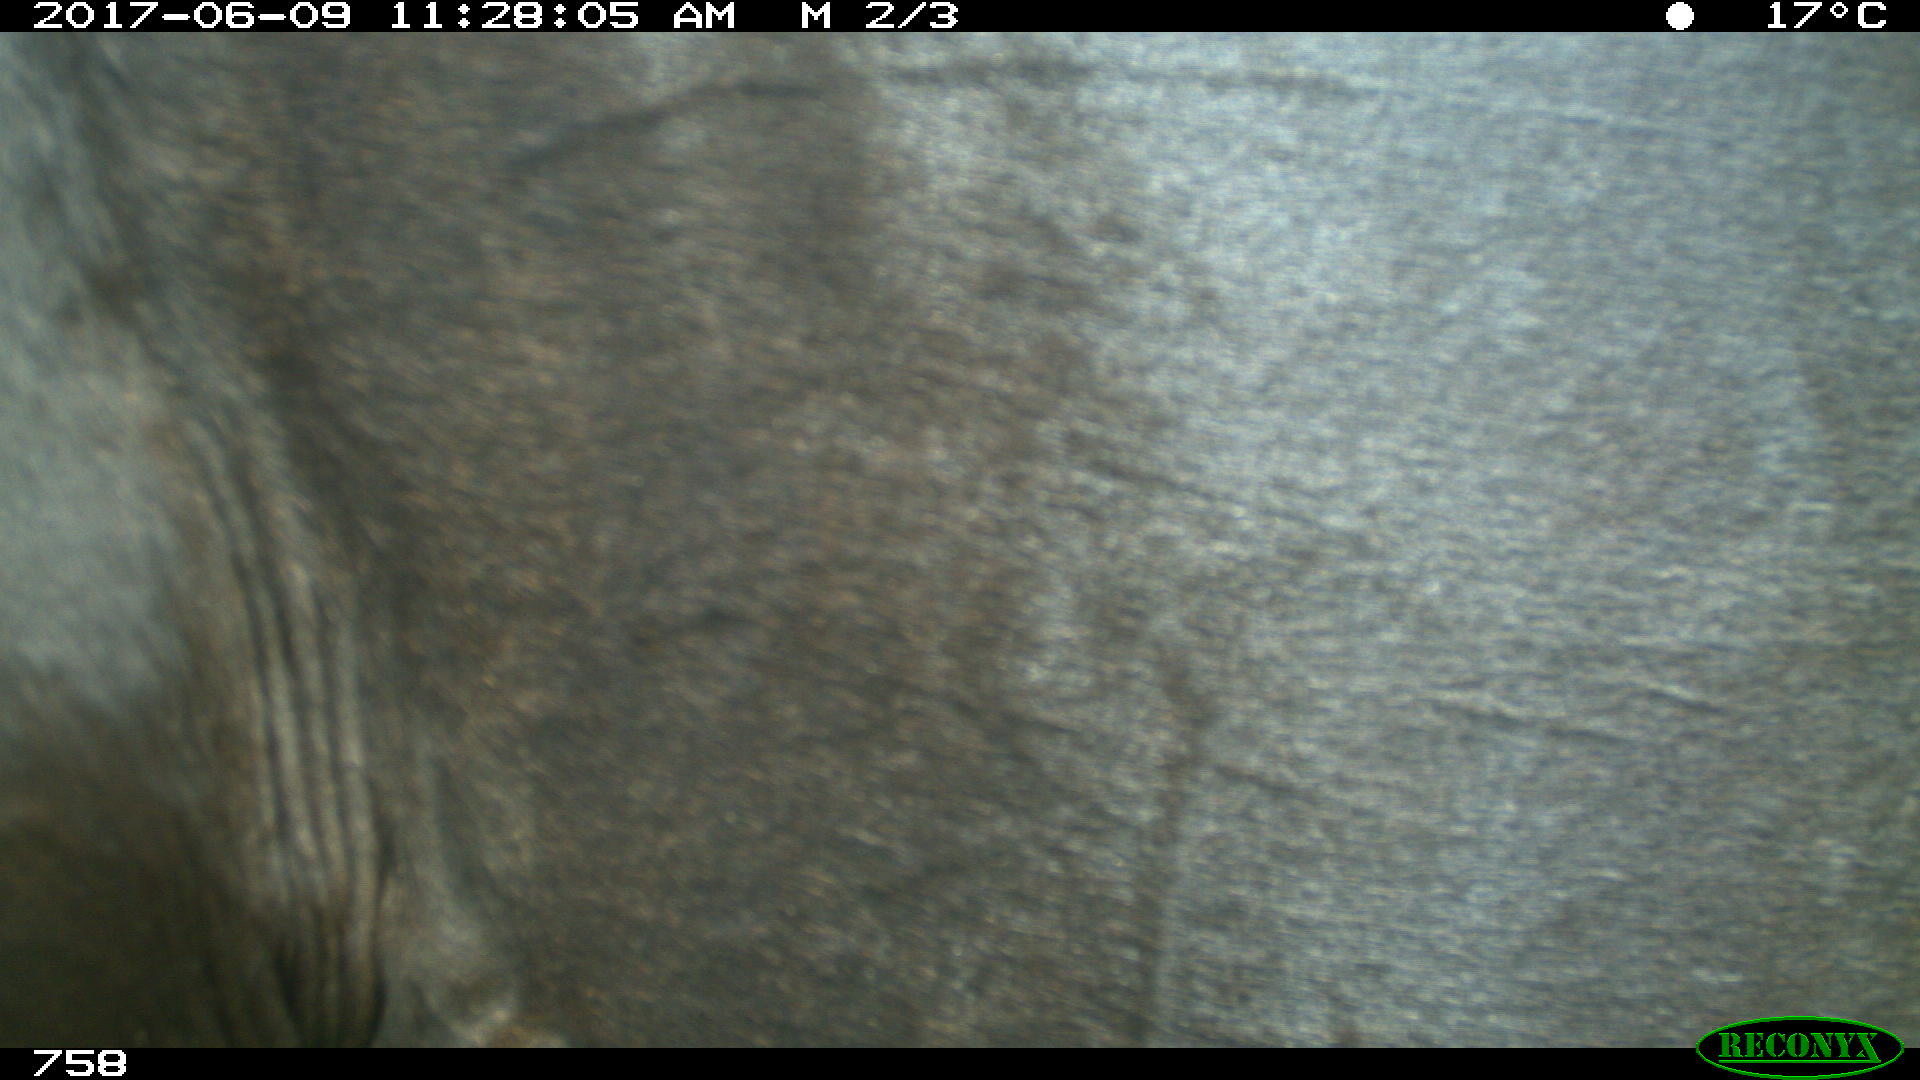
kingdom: Animalia
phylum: Chordata
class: Mammalia
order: Perissodactyla
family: Equidae
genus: Equus
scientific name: Equus caballus
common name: Horse
